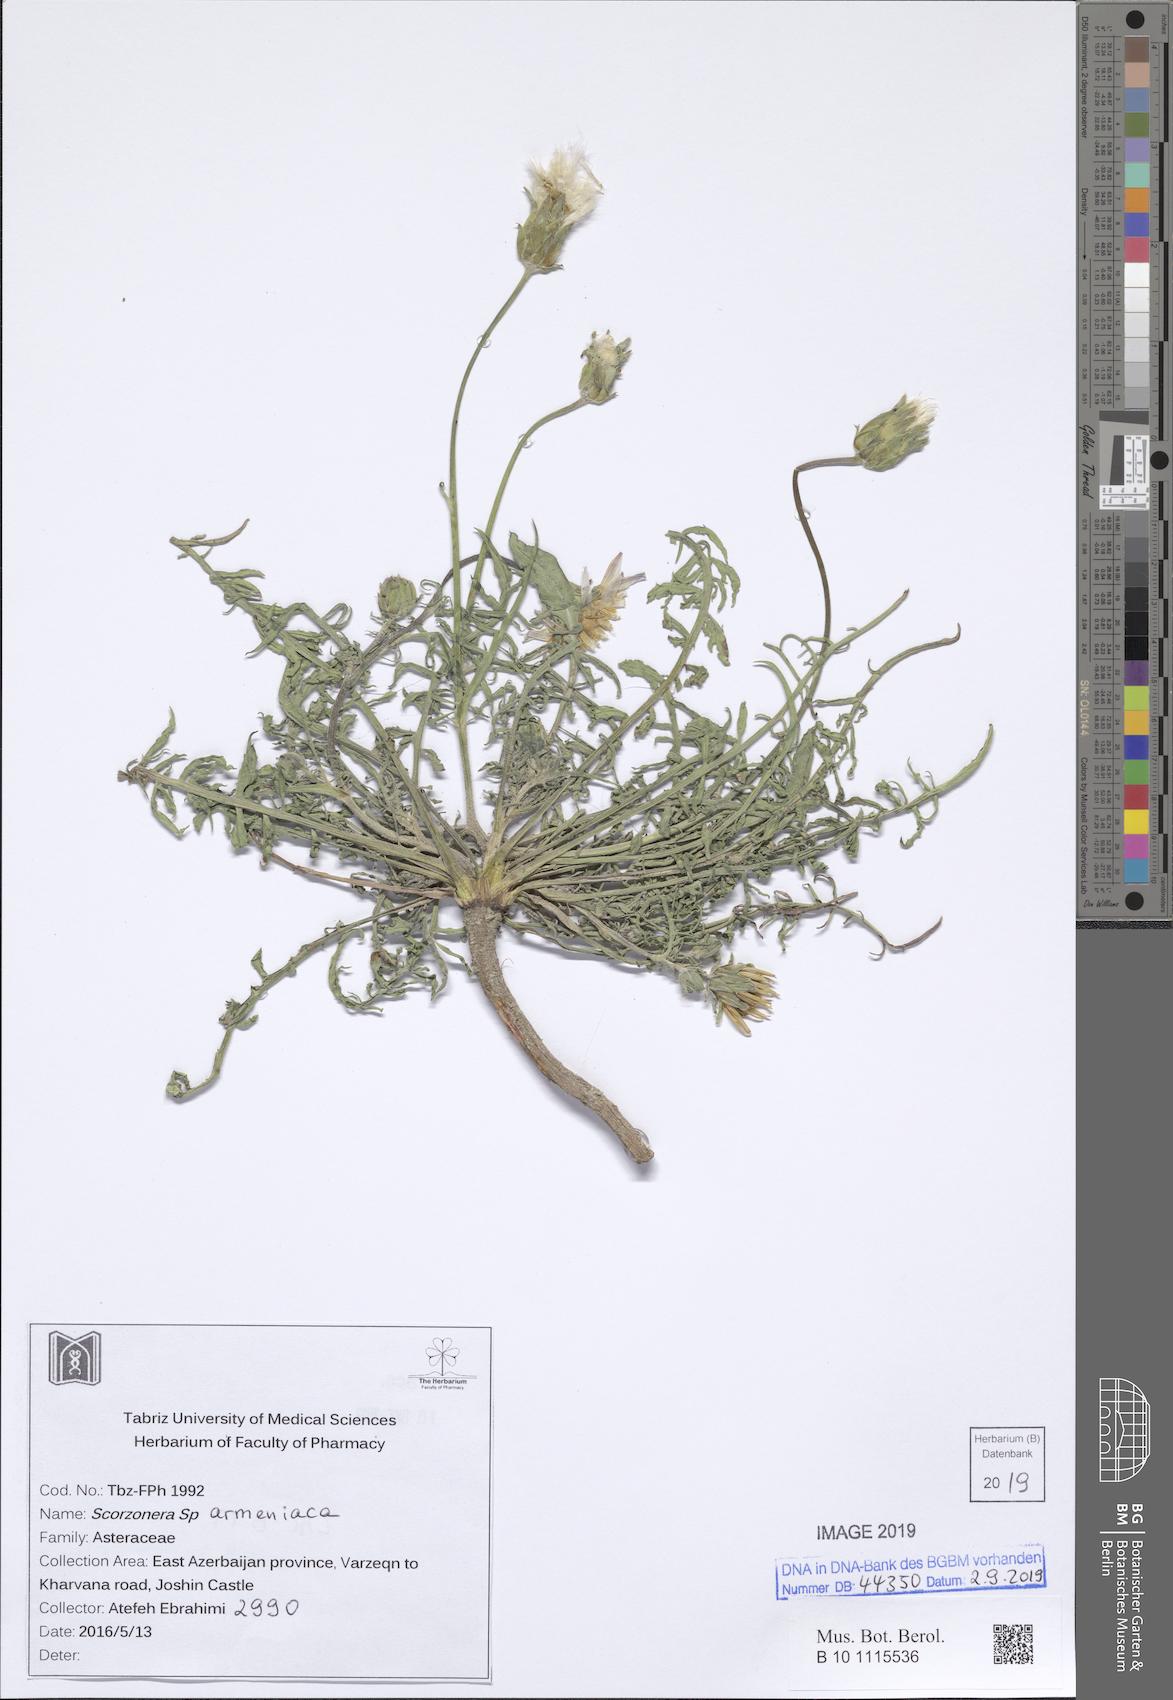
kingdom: Plantae
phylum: Tracheophyta
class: Magnoliopsida
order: Asterales
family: Asteraceae
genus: Scorzonera
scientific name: Scorzonera armeniaca
